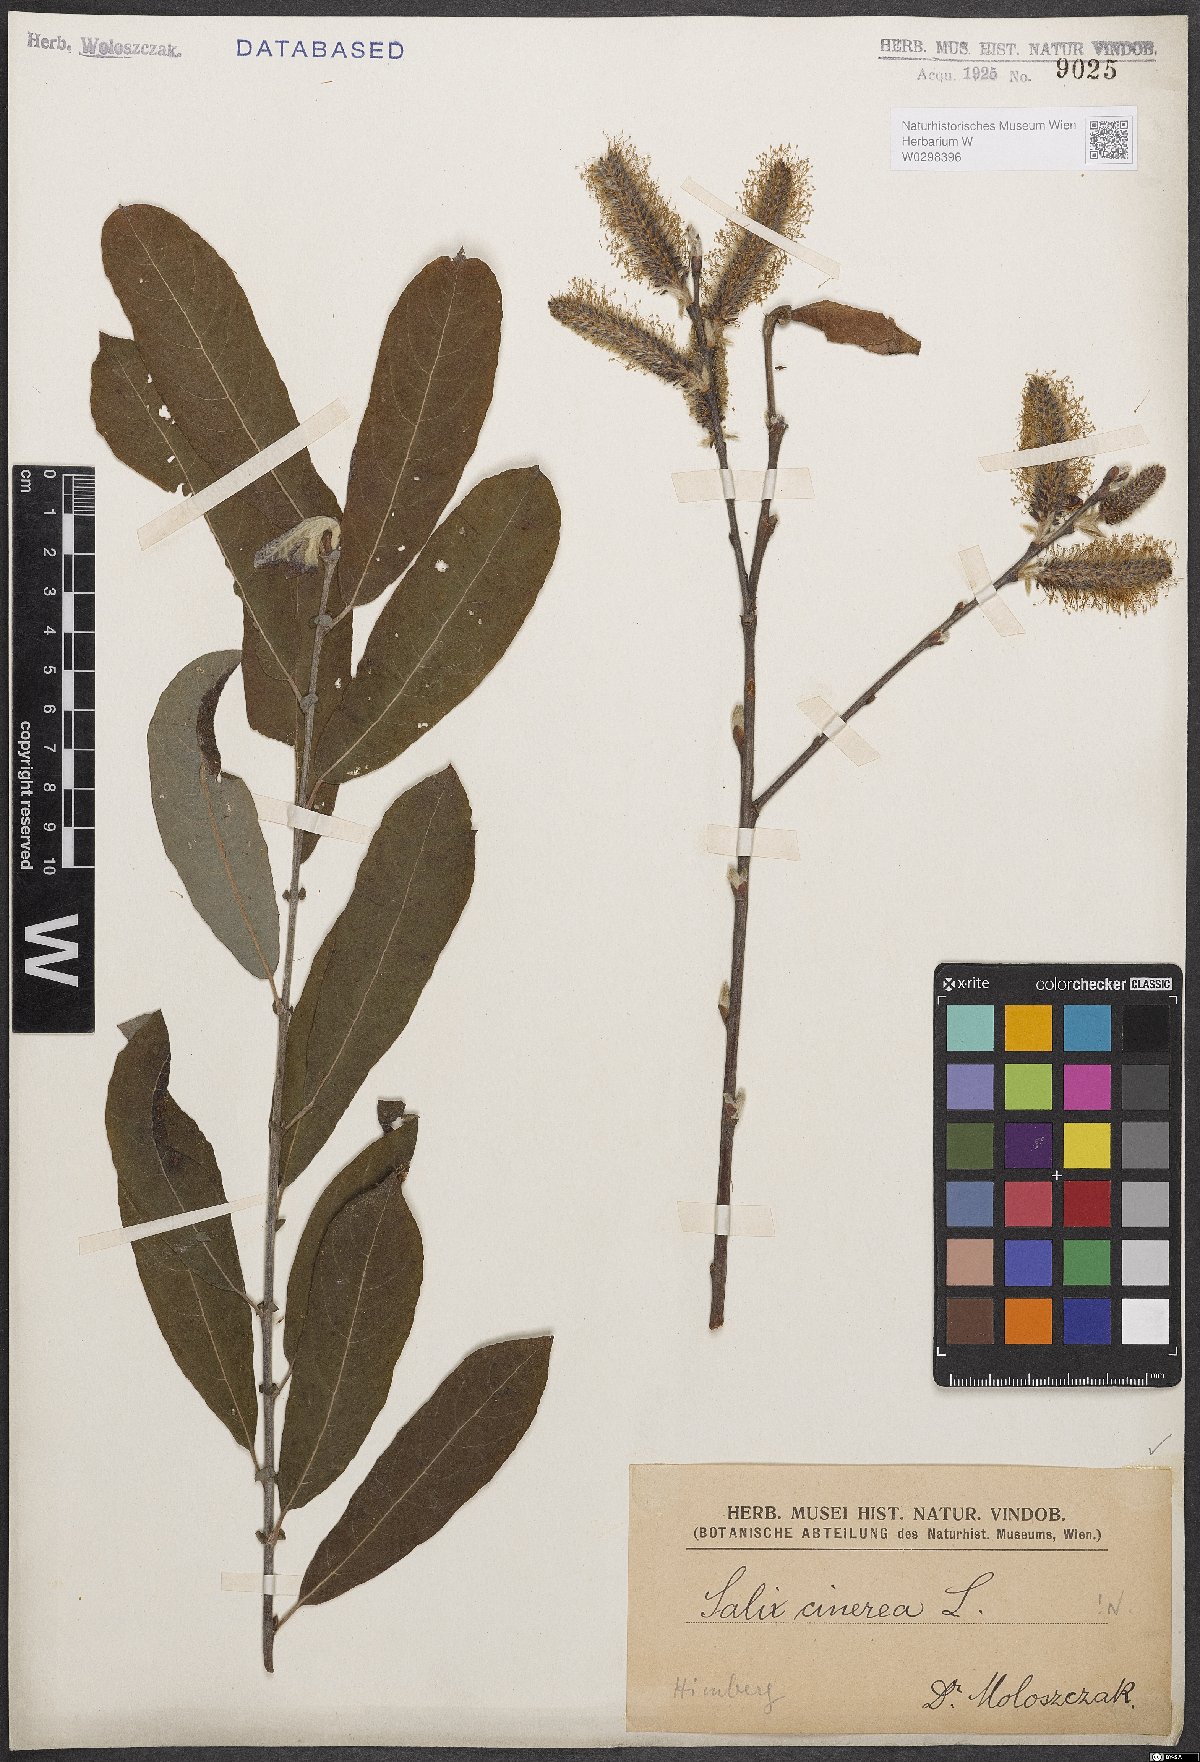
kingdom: Plantae
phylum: Tracheophyta
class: Magnoliopsida
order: Malpighiales
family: Salicaceae
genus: Salix
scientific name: Salix cinerea
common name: Common sallow
